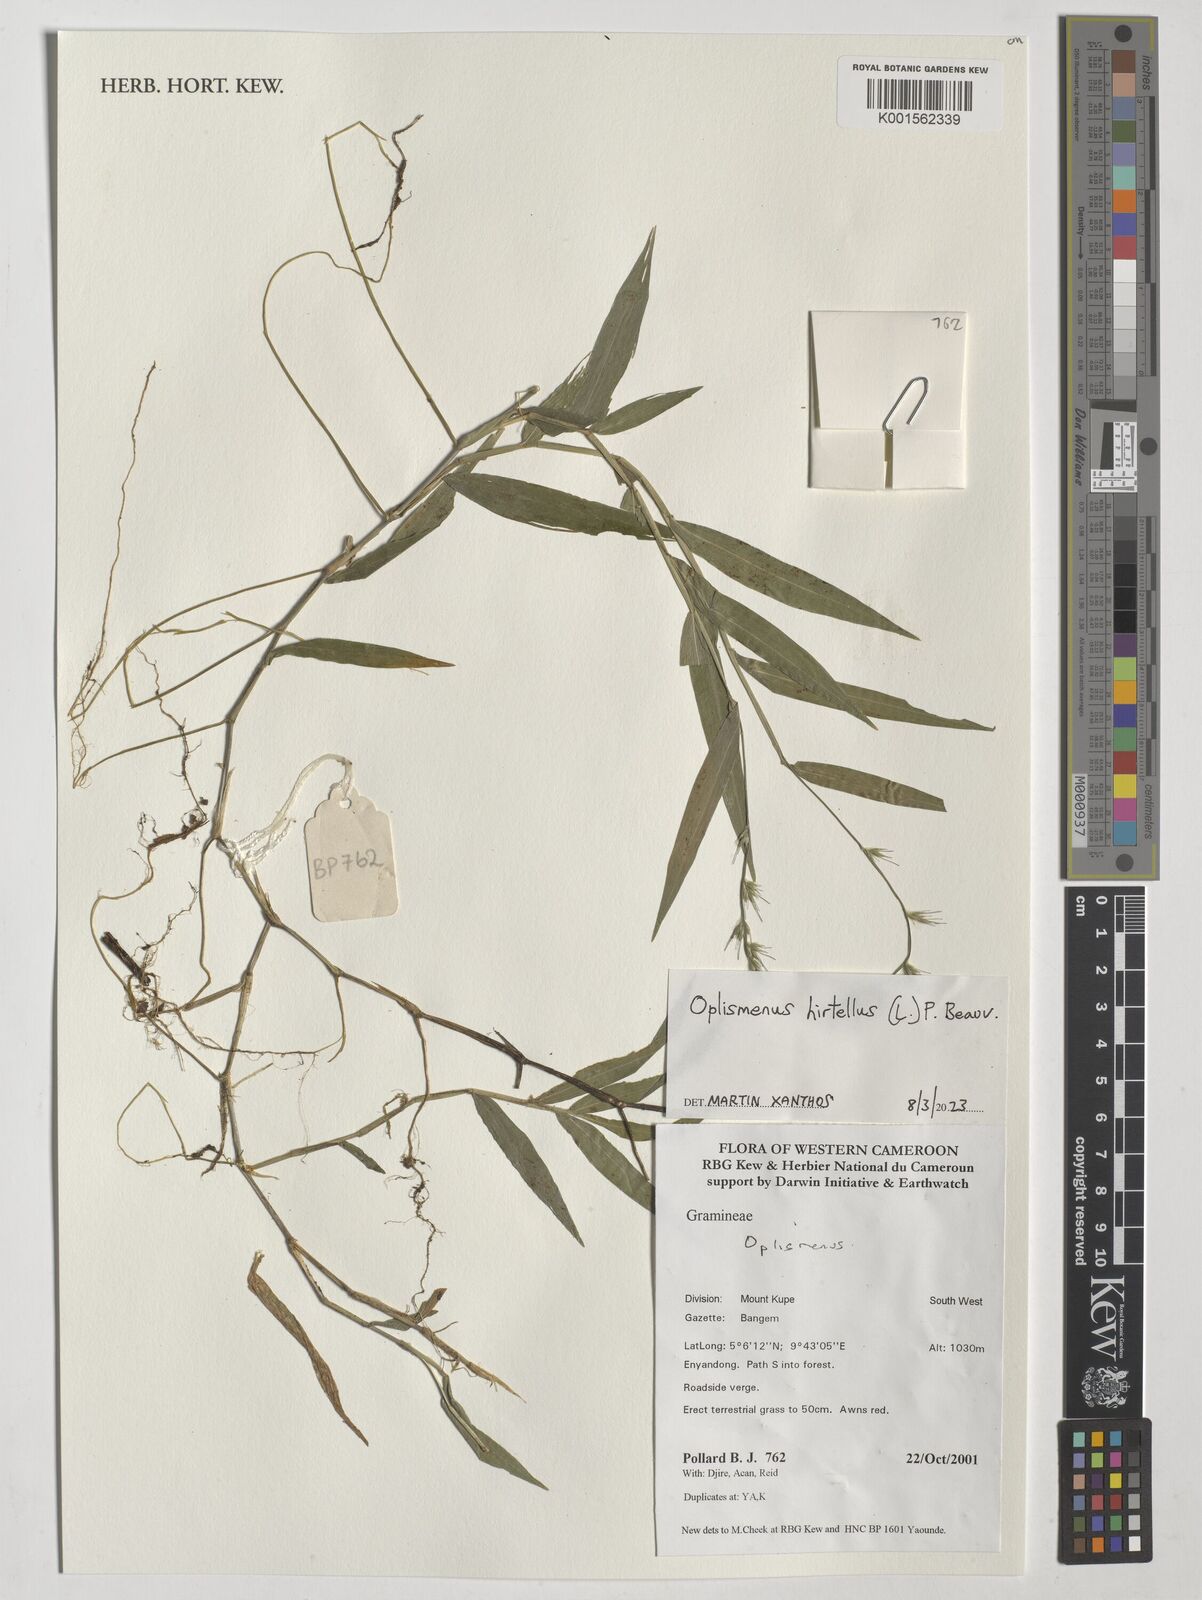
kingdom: Plantae
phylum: Tracheophyta
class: Liliopsida
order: Poales
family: Poaceae
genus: Oplismenus
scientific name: Oplismenus hirtellus
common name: Basketgrass
